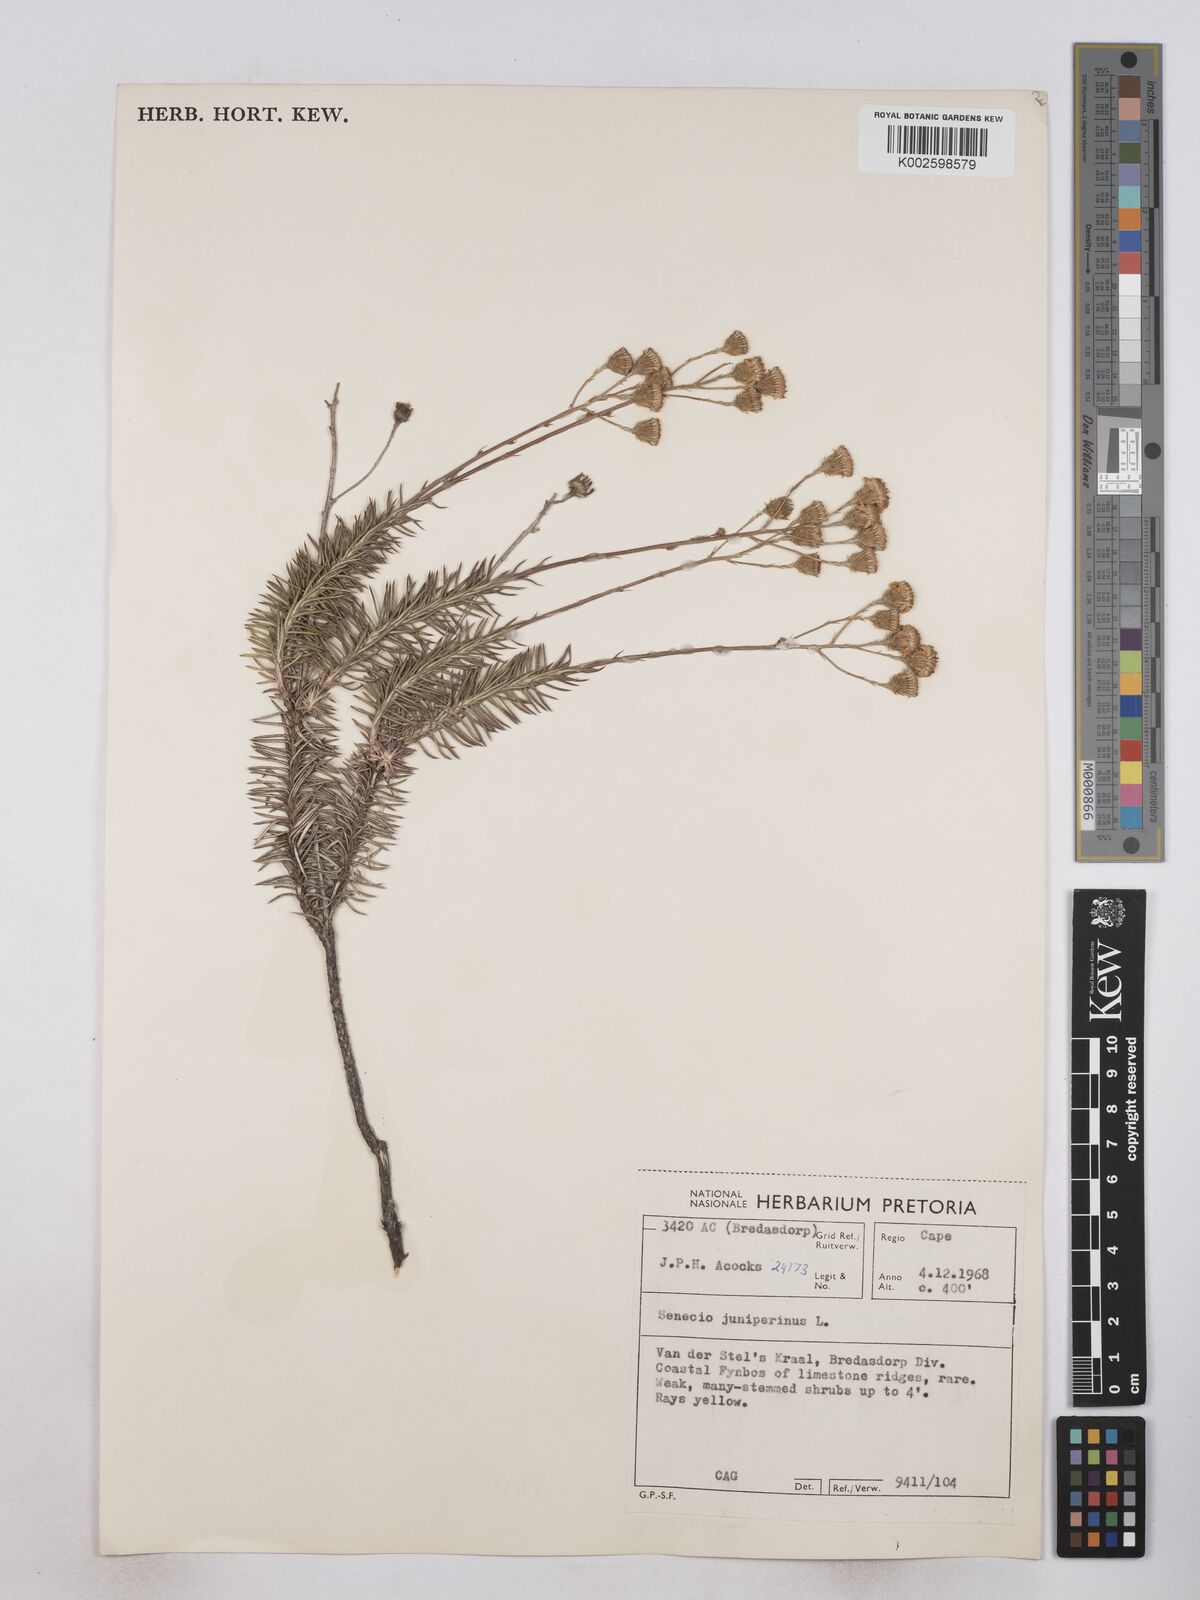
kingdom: Plantae
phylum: Tracheophyta
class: Magnoliopsida
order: Asterales
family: Asteraceae
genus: Senecio
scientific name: Senecio juniperinus
